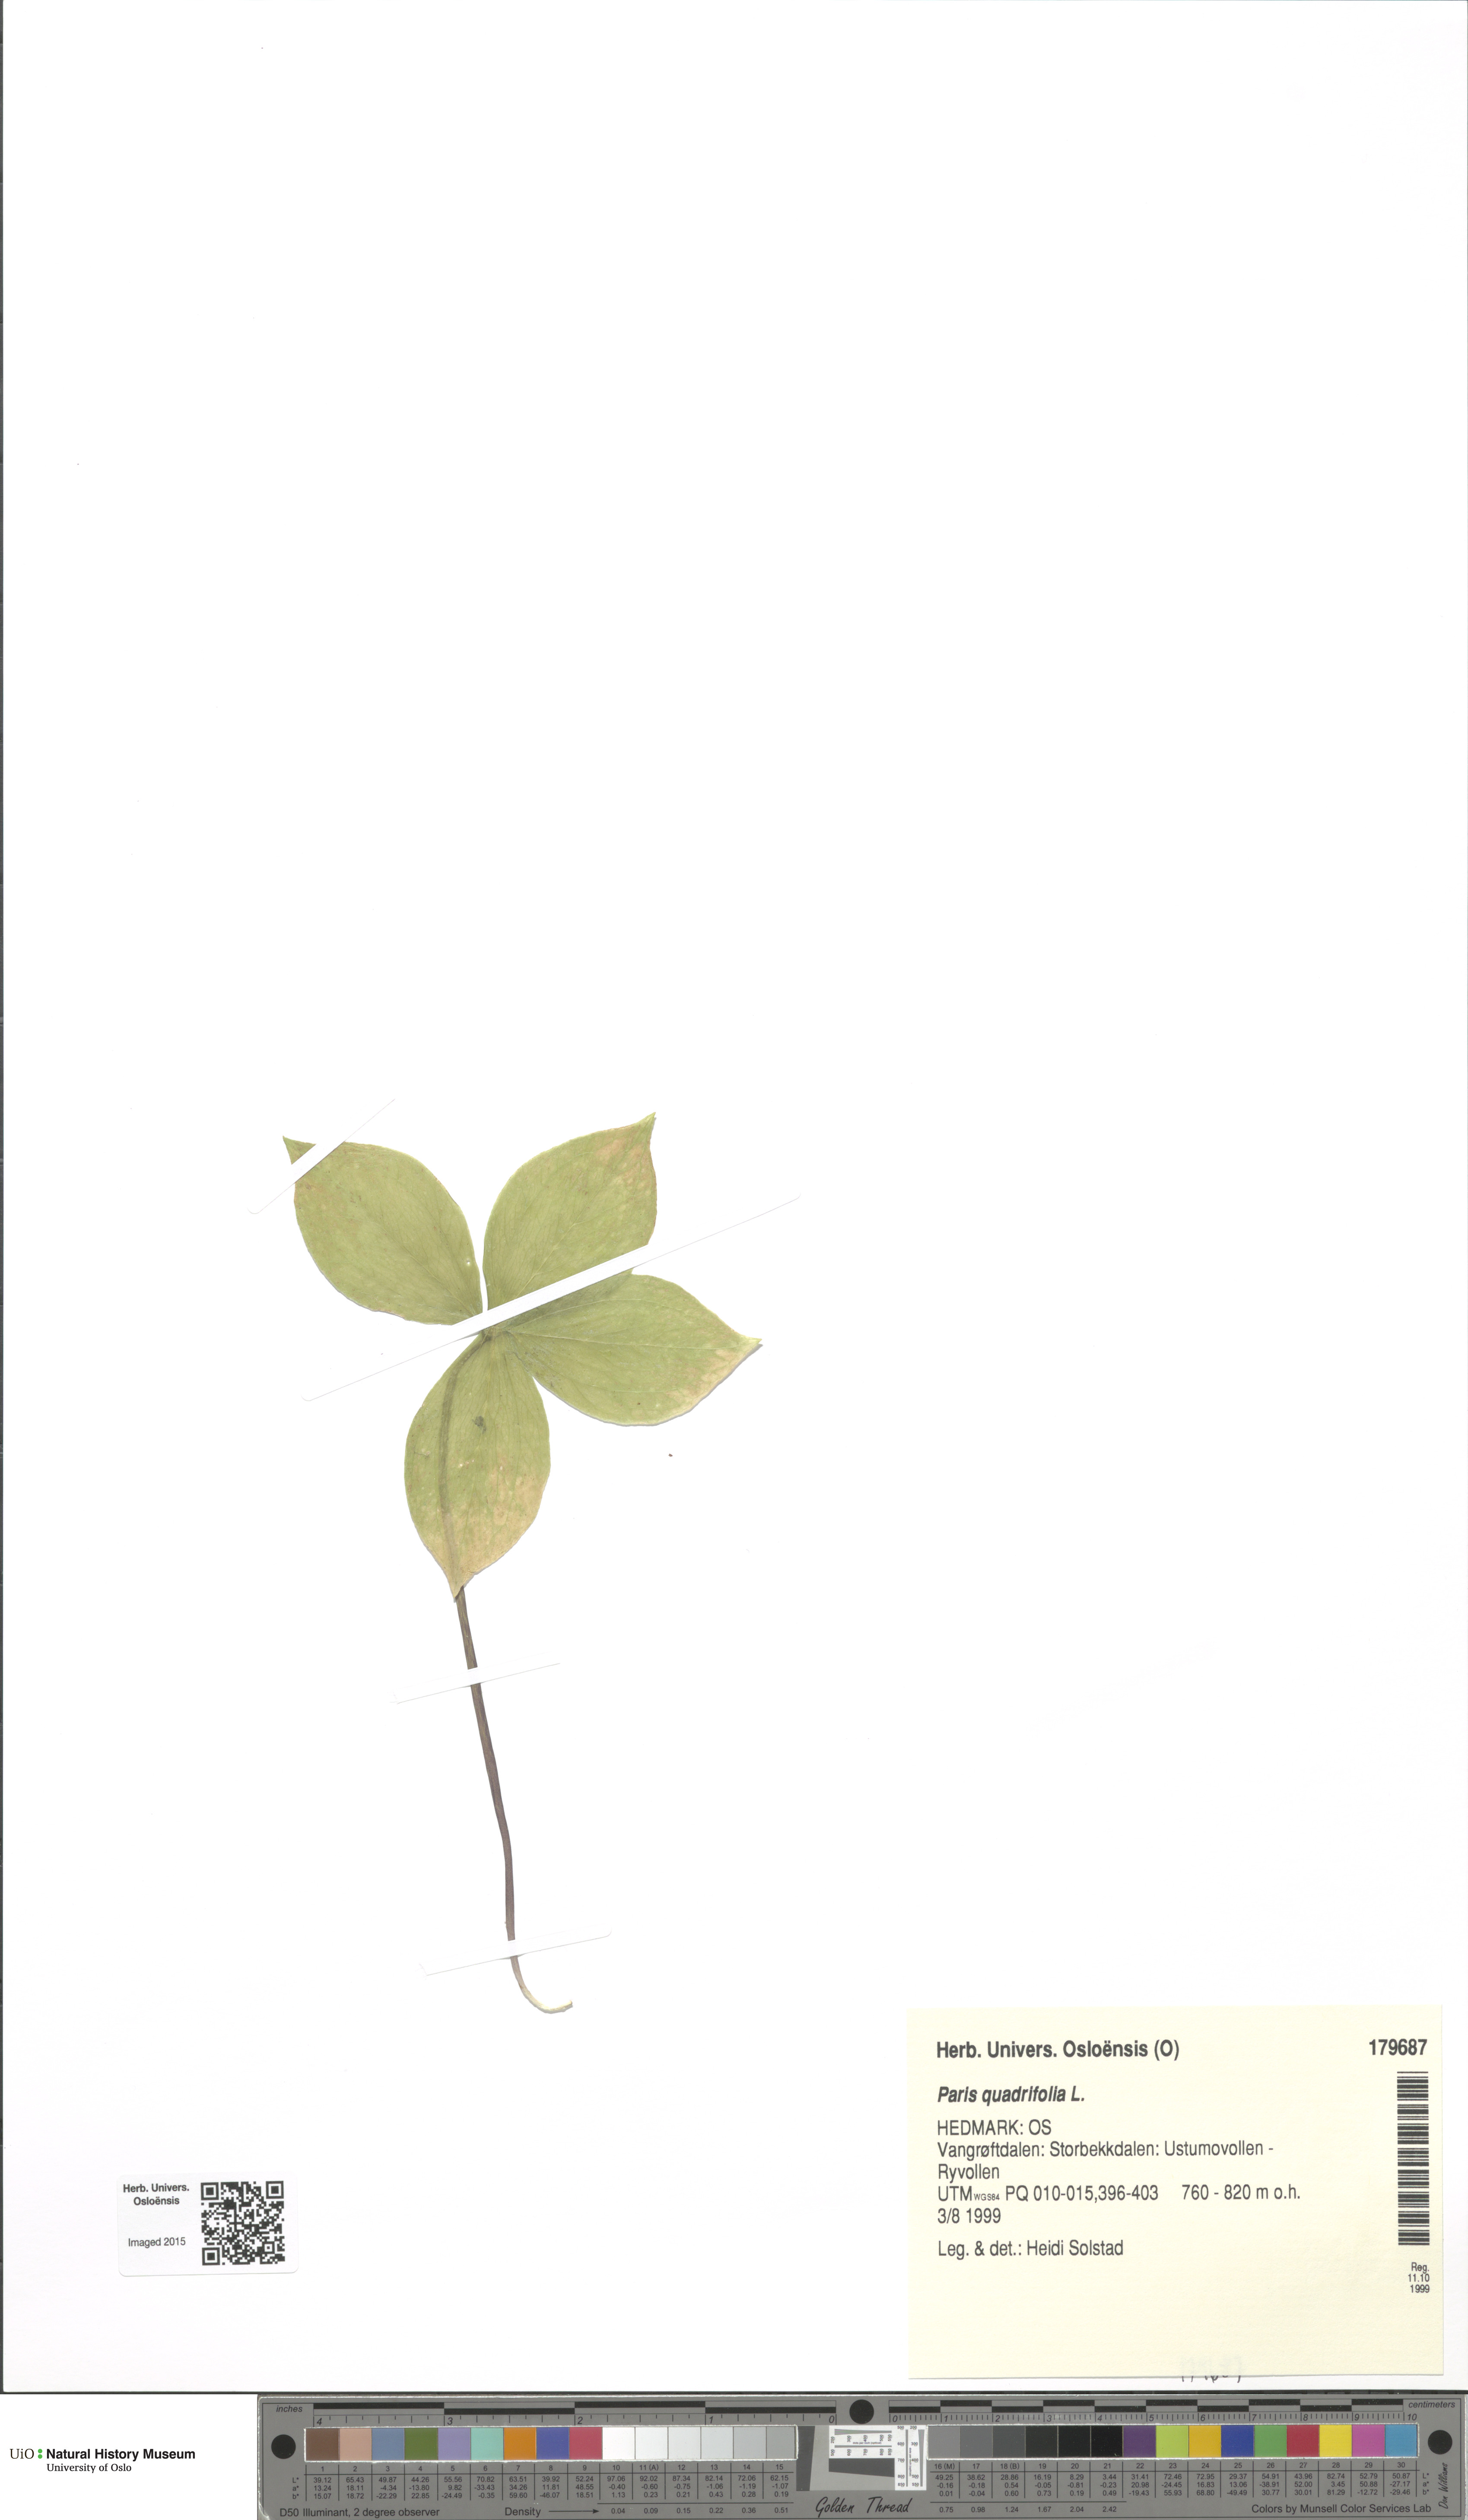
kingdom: Plantae
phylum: Tracheophyta
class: Liliopsida
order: Liliales
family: Melanthiaceae
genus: Paris
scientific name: Paris quadrifolia
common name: Herb-paris
